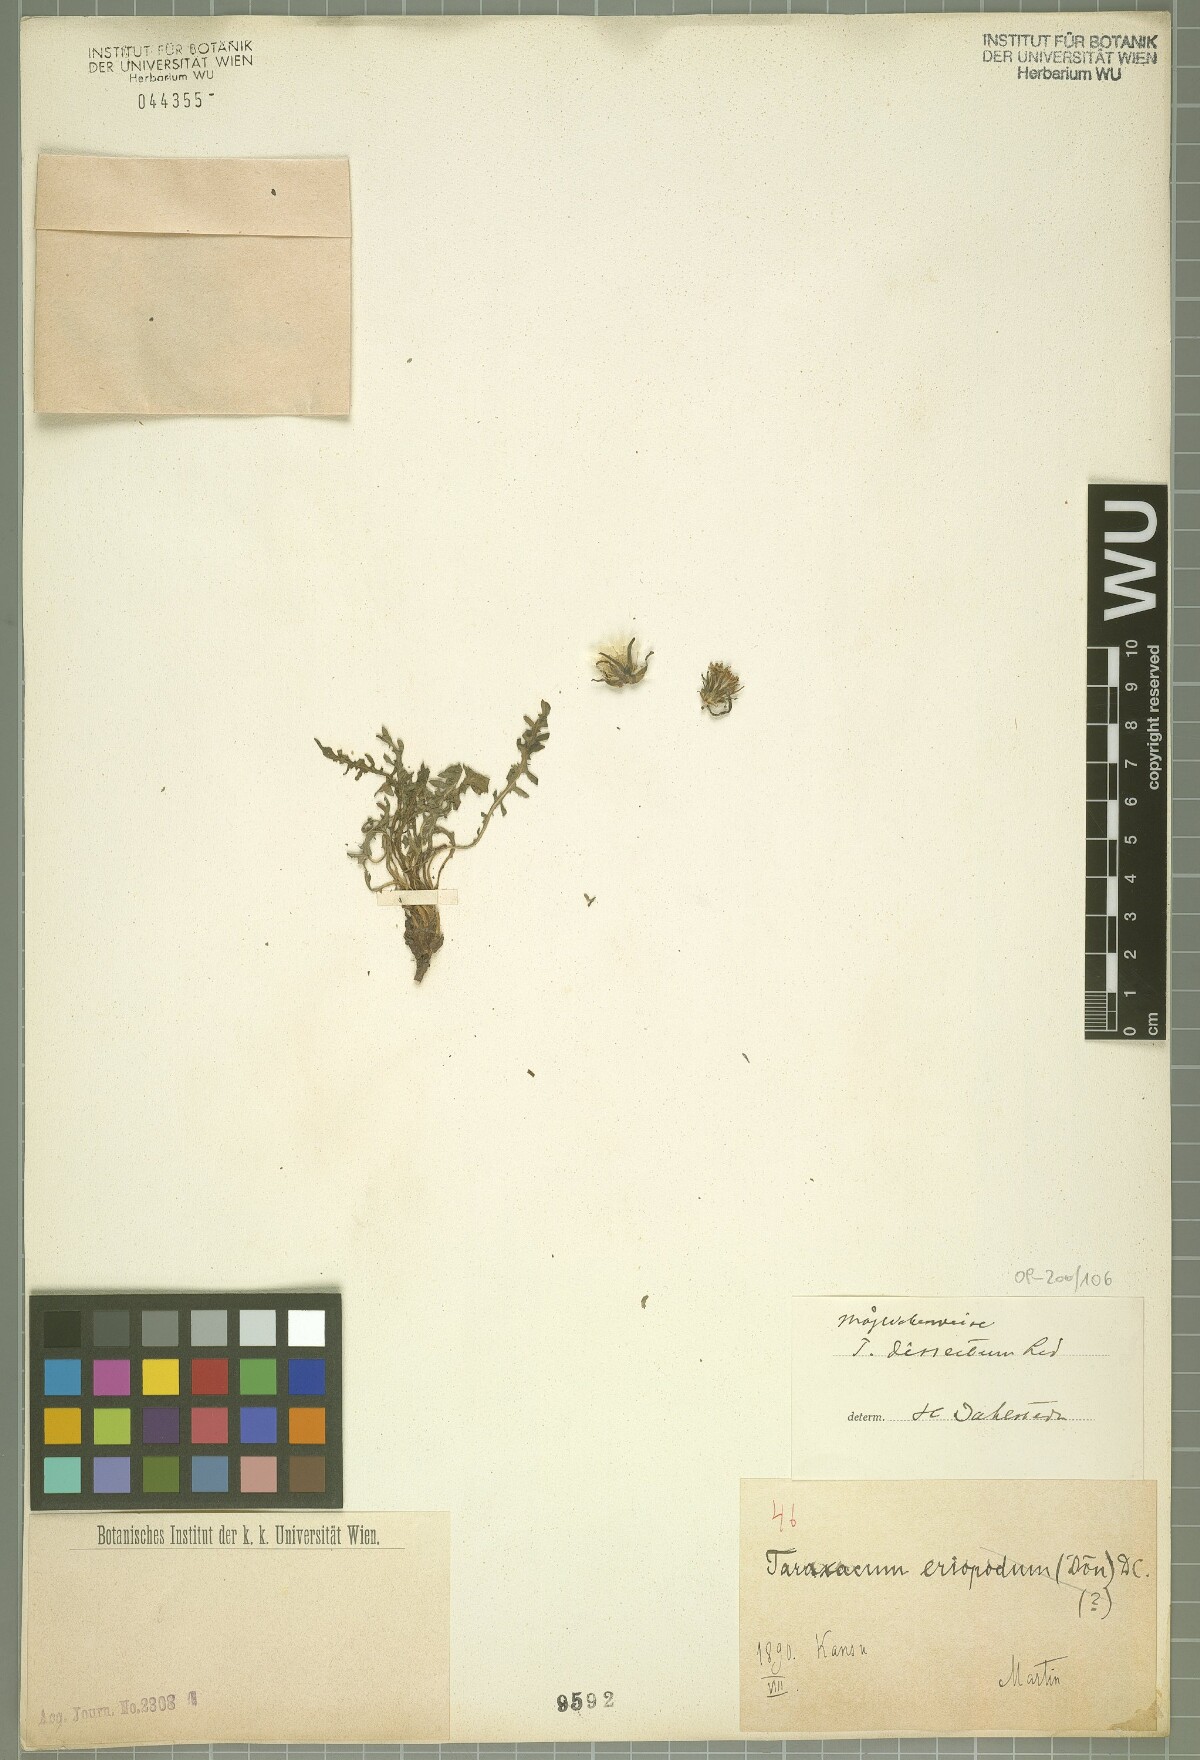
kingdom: Plantae
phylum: Tracheophyta
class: Magnoliopsida
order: Asterales
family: Asteraceae
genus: Taraxacum
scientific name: Taraxacum dissectum
